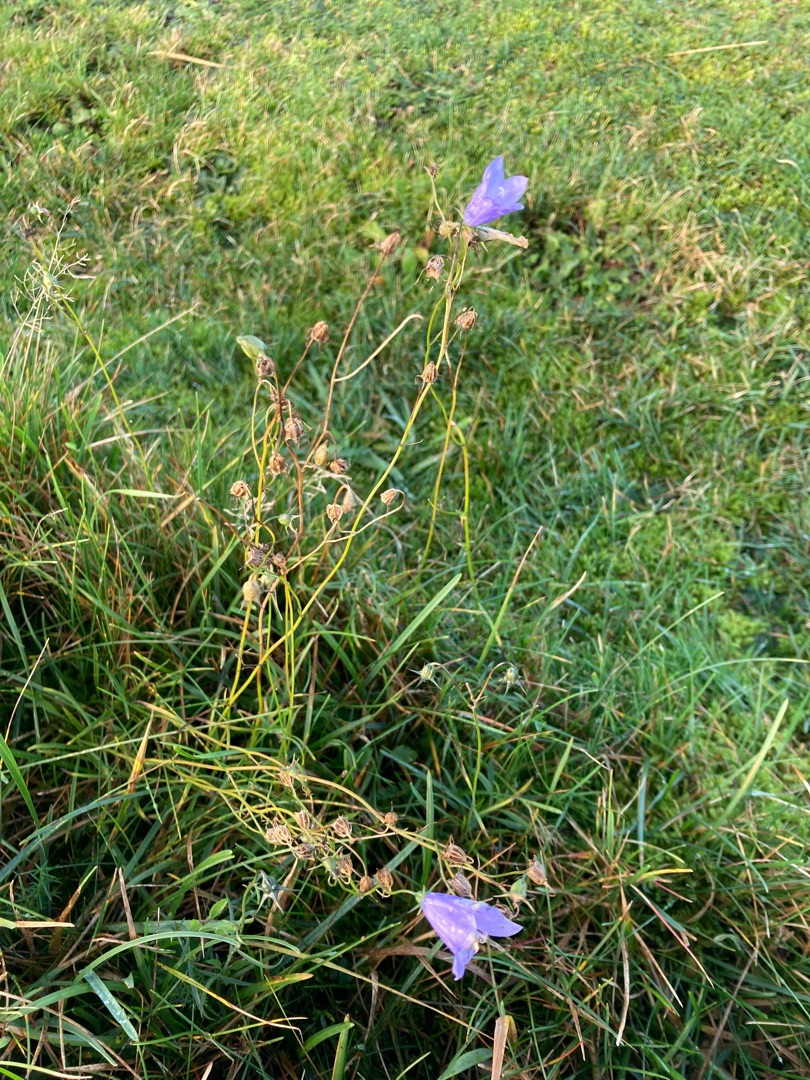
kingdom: Plantae
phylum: Tracheophyta
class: Magnoliopsida
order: Asterales
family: Campanulaceae
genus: Campanula
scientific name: Campanula rotundifolia
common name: Liden klokke
